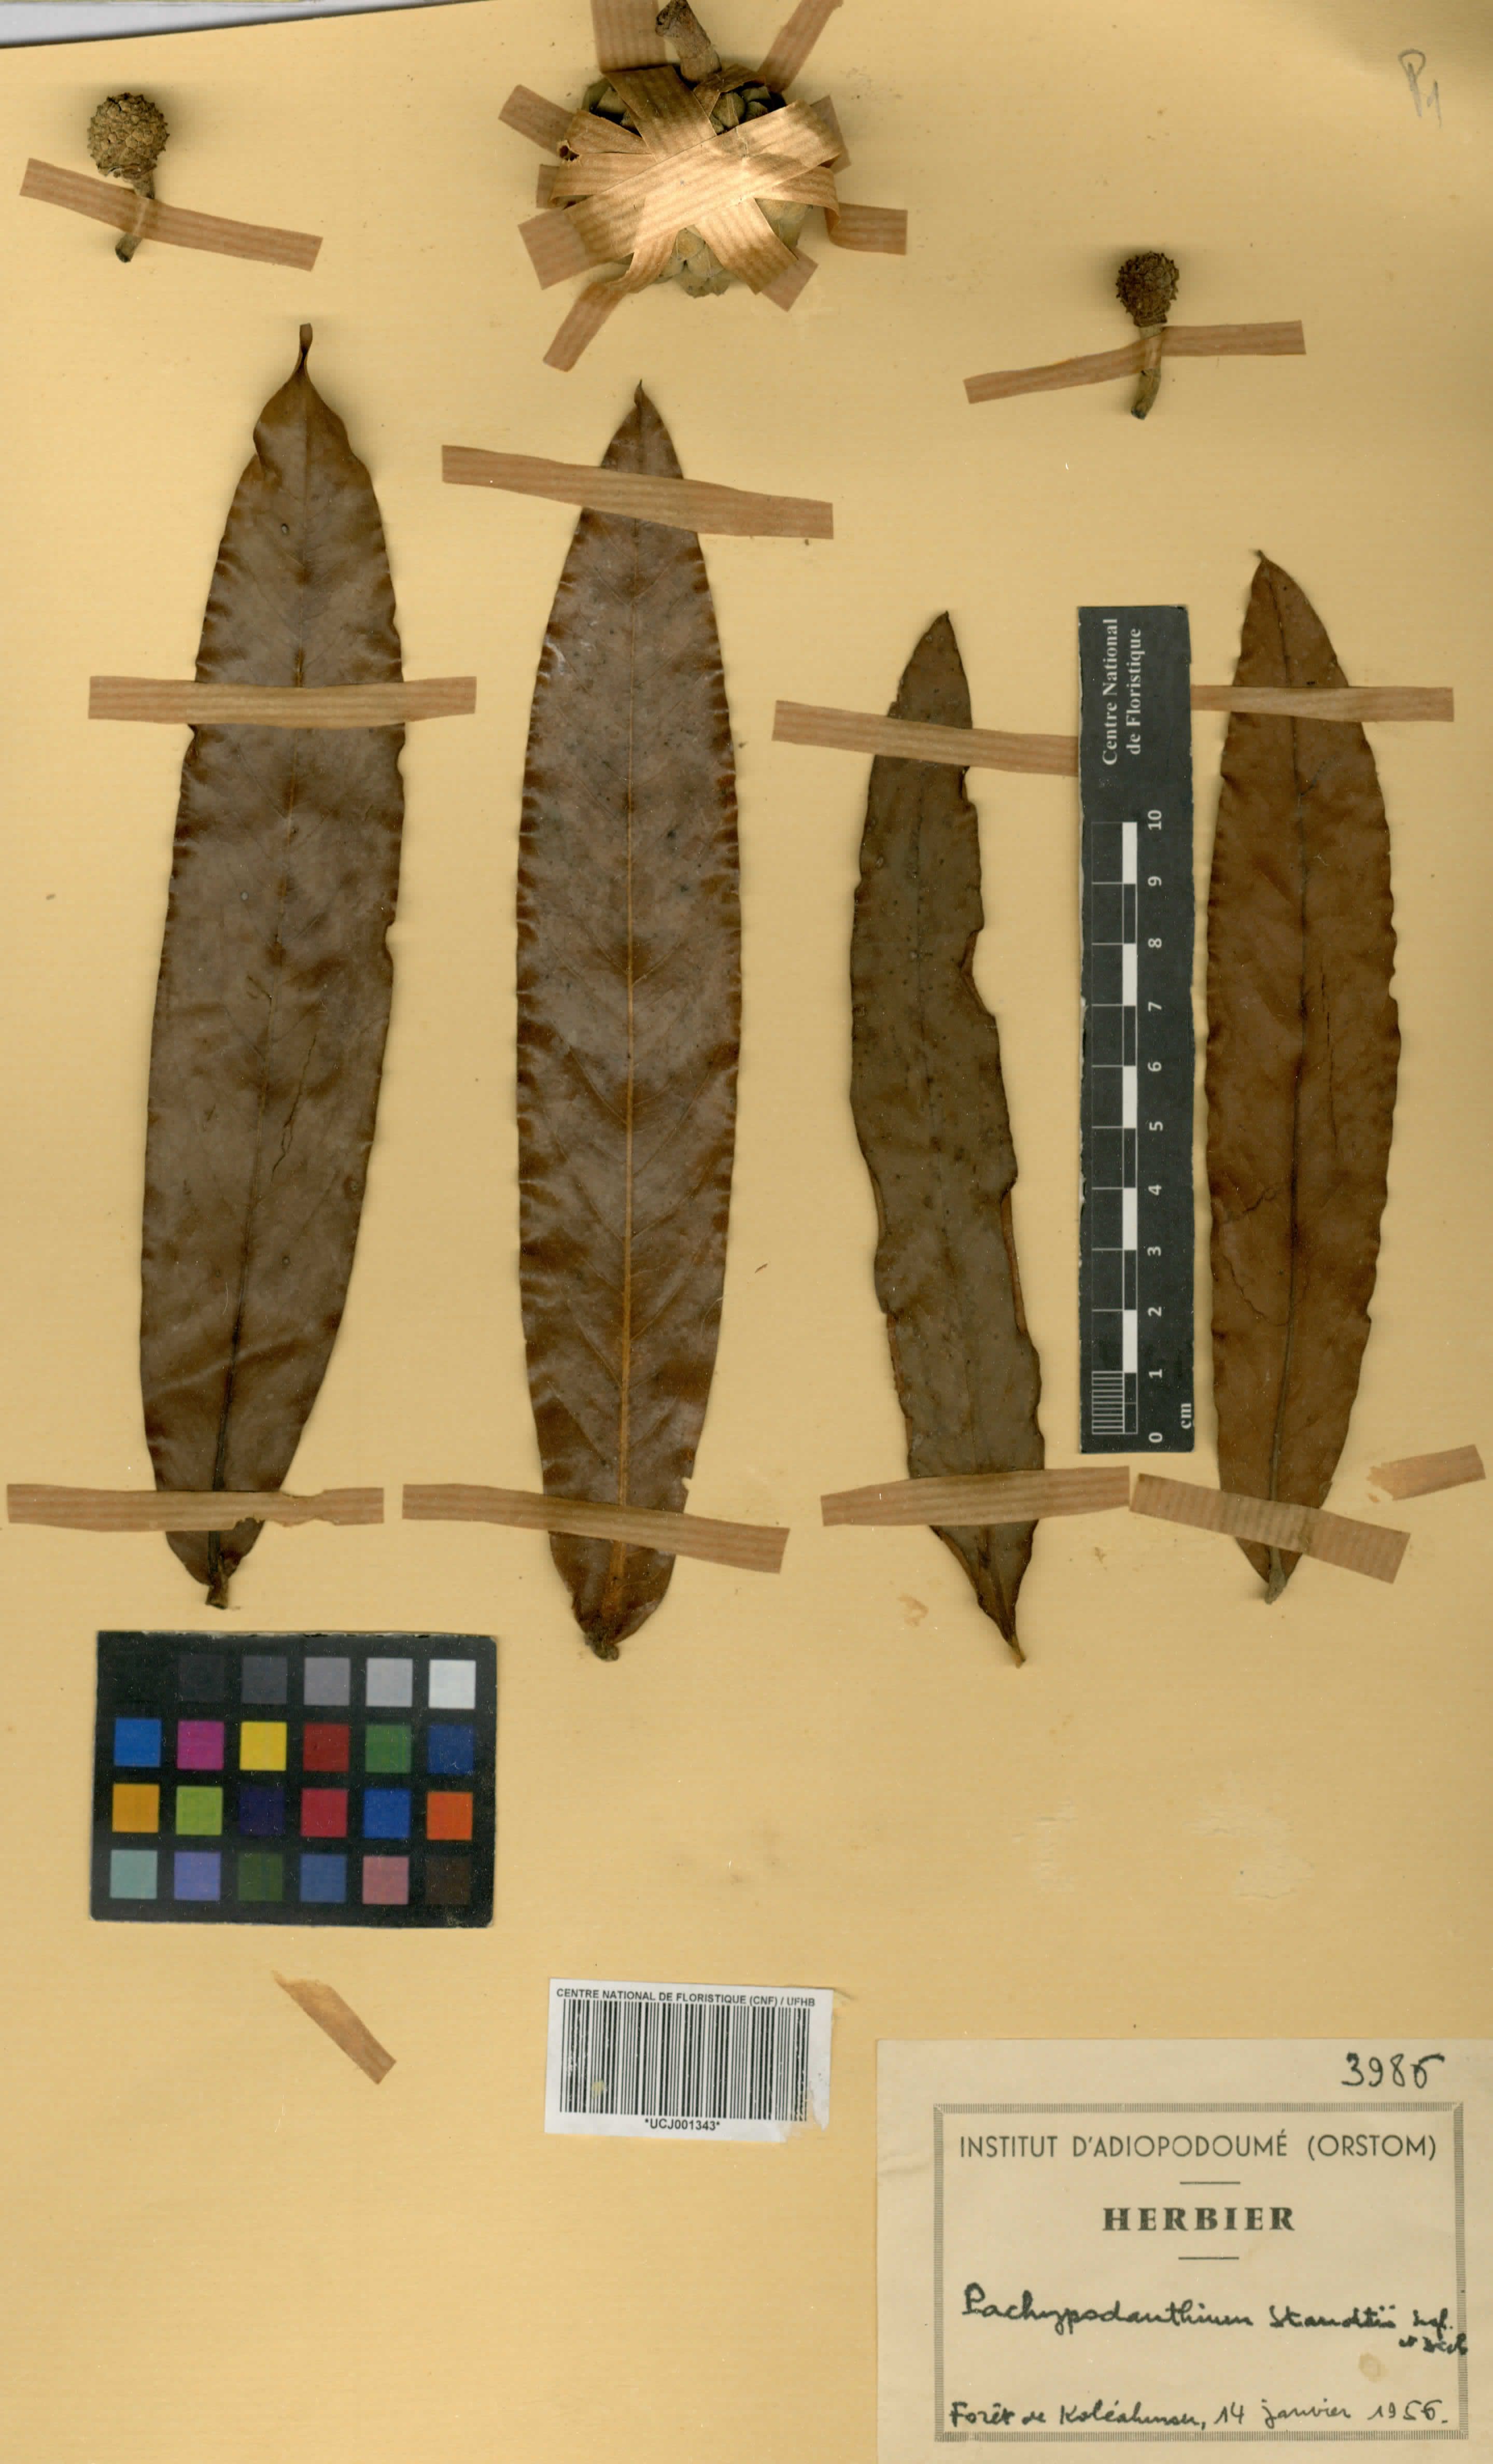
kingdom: Plantae
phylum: Tracheophyta
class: Magnoliopsida
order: Magnoliales
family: Annonaceae
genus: Duguetia
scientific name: Duguetia staudtii
